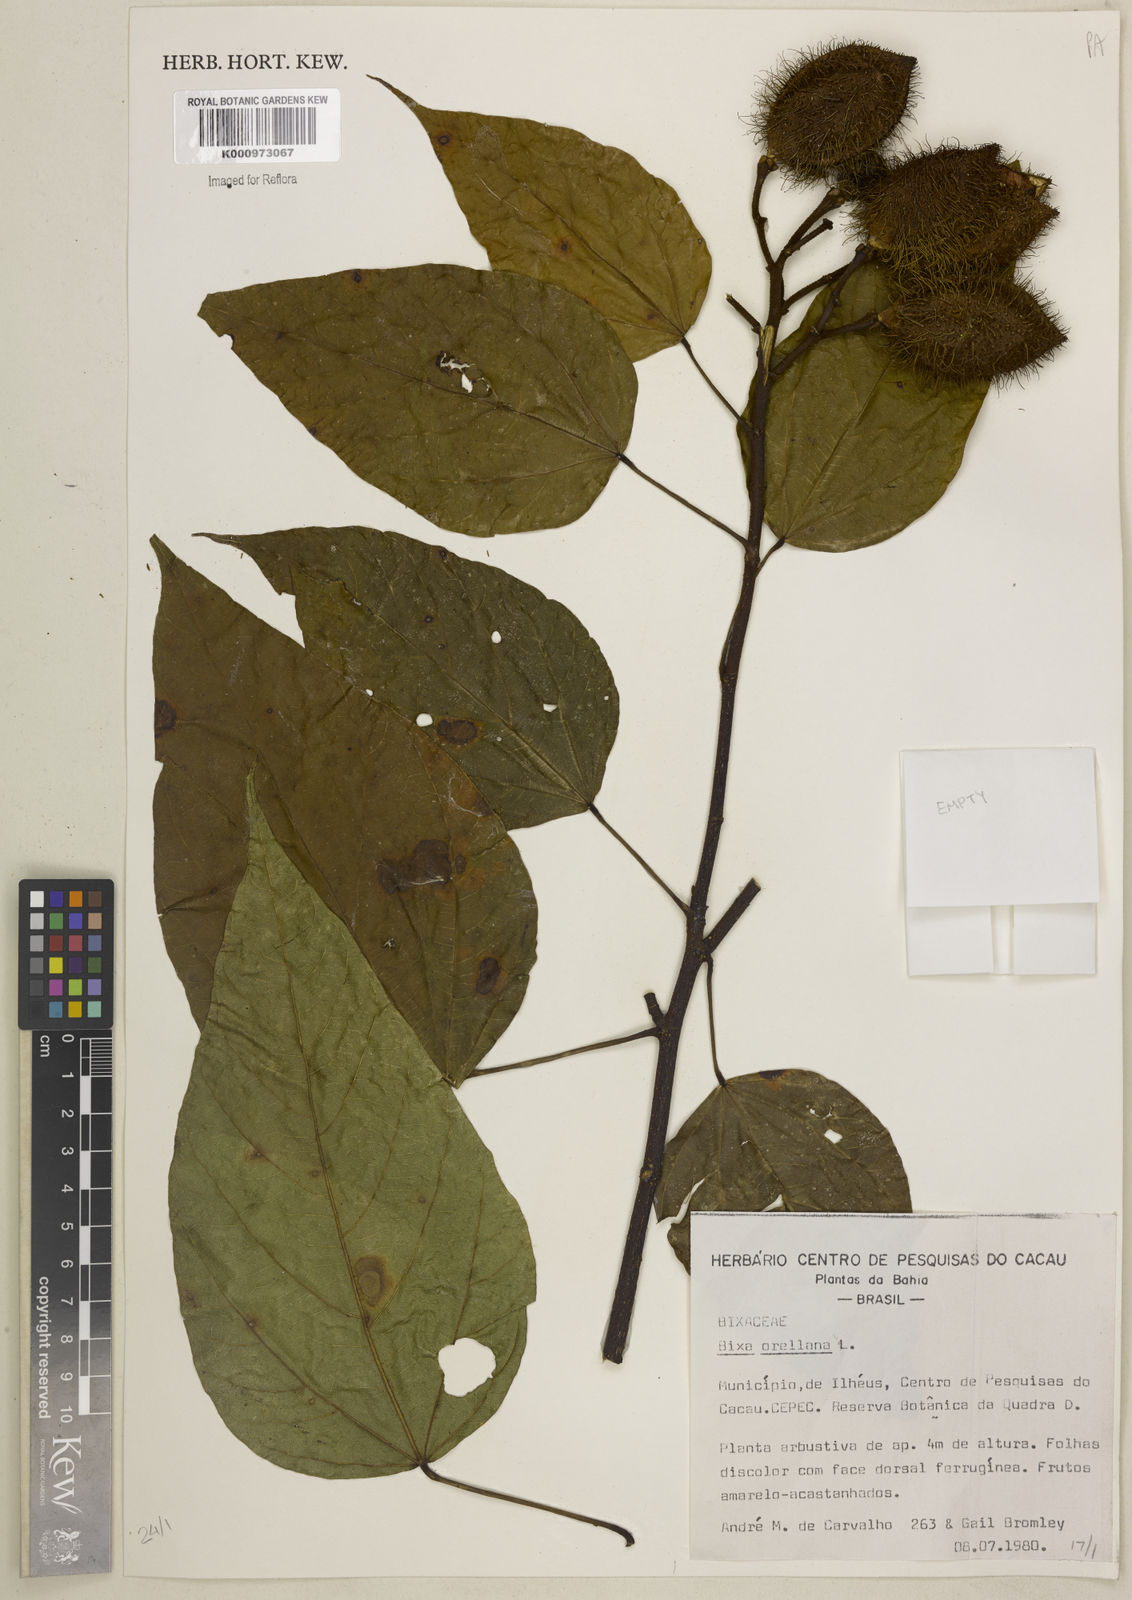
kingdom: Plantae
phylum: Tracheophyta
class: Magnoliopsida
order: Malvales
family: Bixaceae
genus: Bixa
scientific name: Bixa orellana
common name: Lipsticktree
